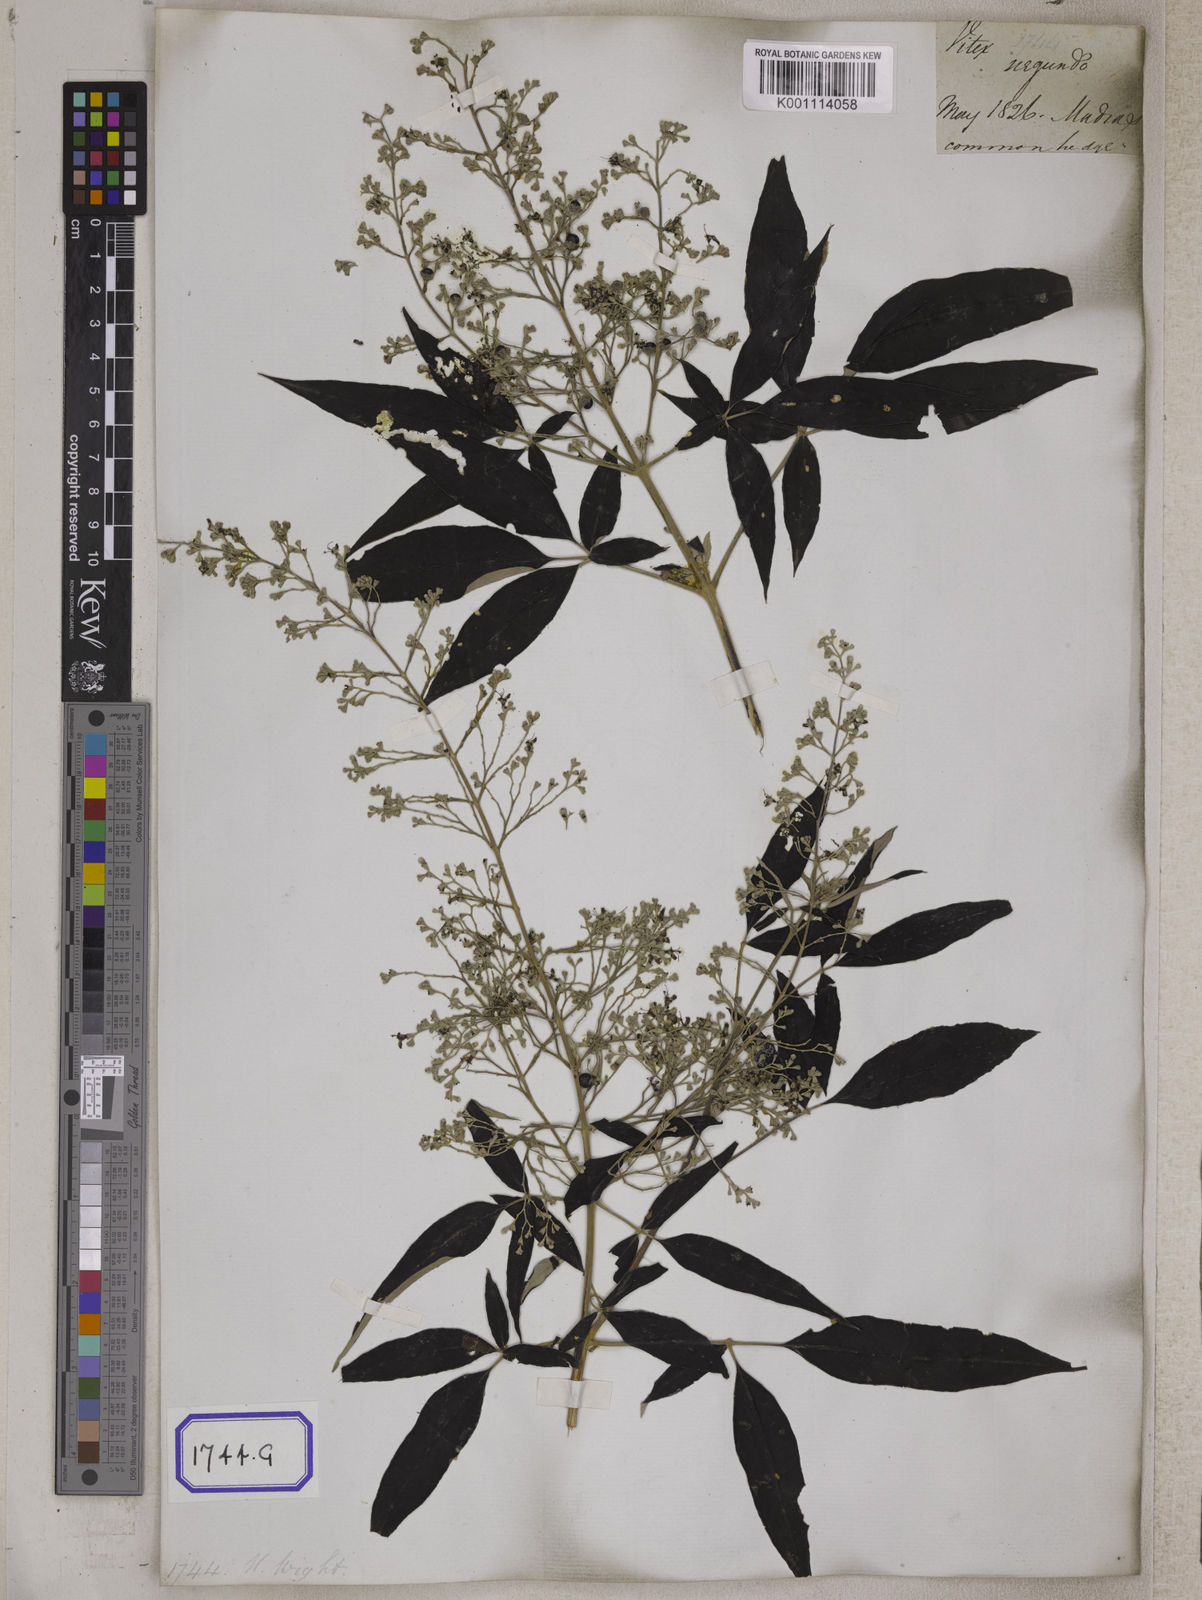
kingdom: Plantae
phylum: Tracheophyta
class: Magnoliopsida
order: Lamiales
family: Lamiaceae
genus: Vitex
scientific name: Vitex negundo
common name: Chinese chastetree
